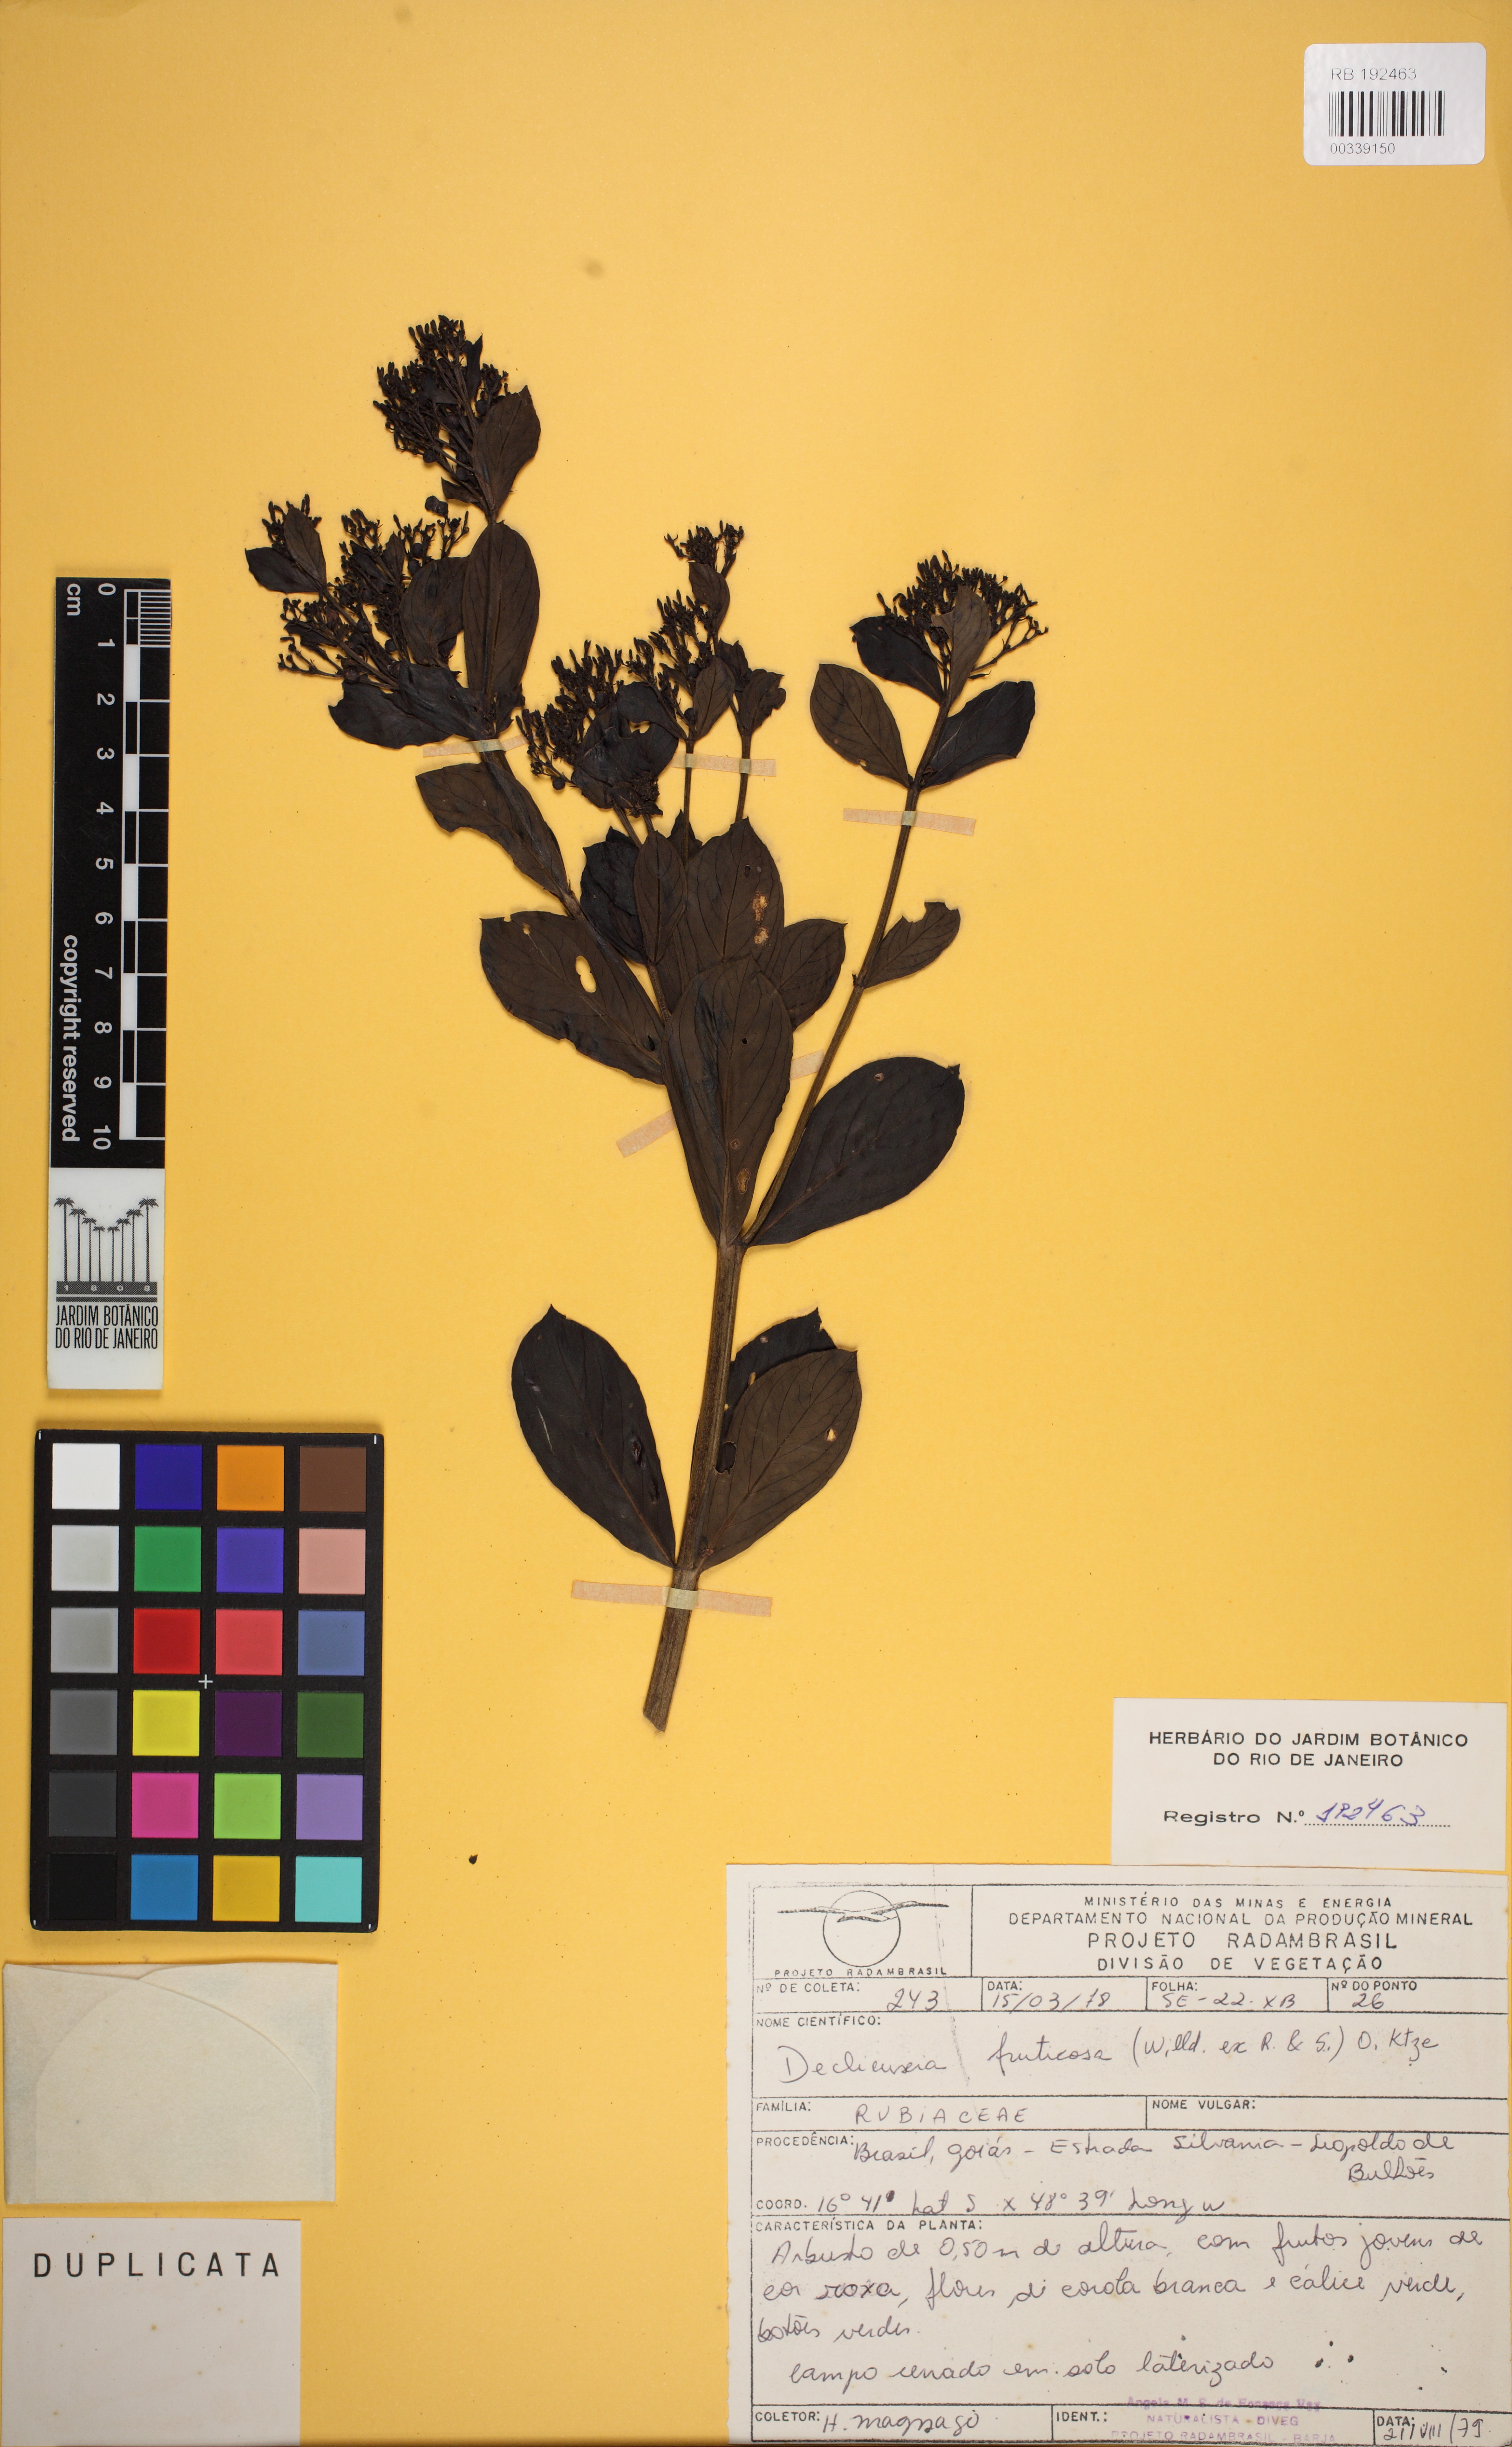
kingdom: Plantae
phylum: Tracheophyta
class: Magnoliopsida
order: Gentianales
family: Rubiaceae
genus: Declieuxia
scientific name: Declieuxia fruticosa
